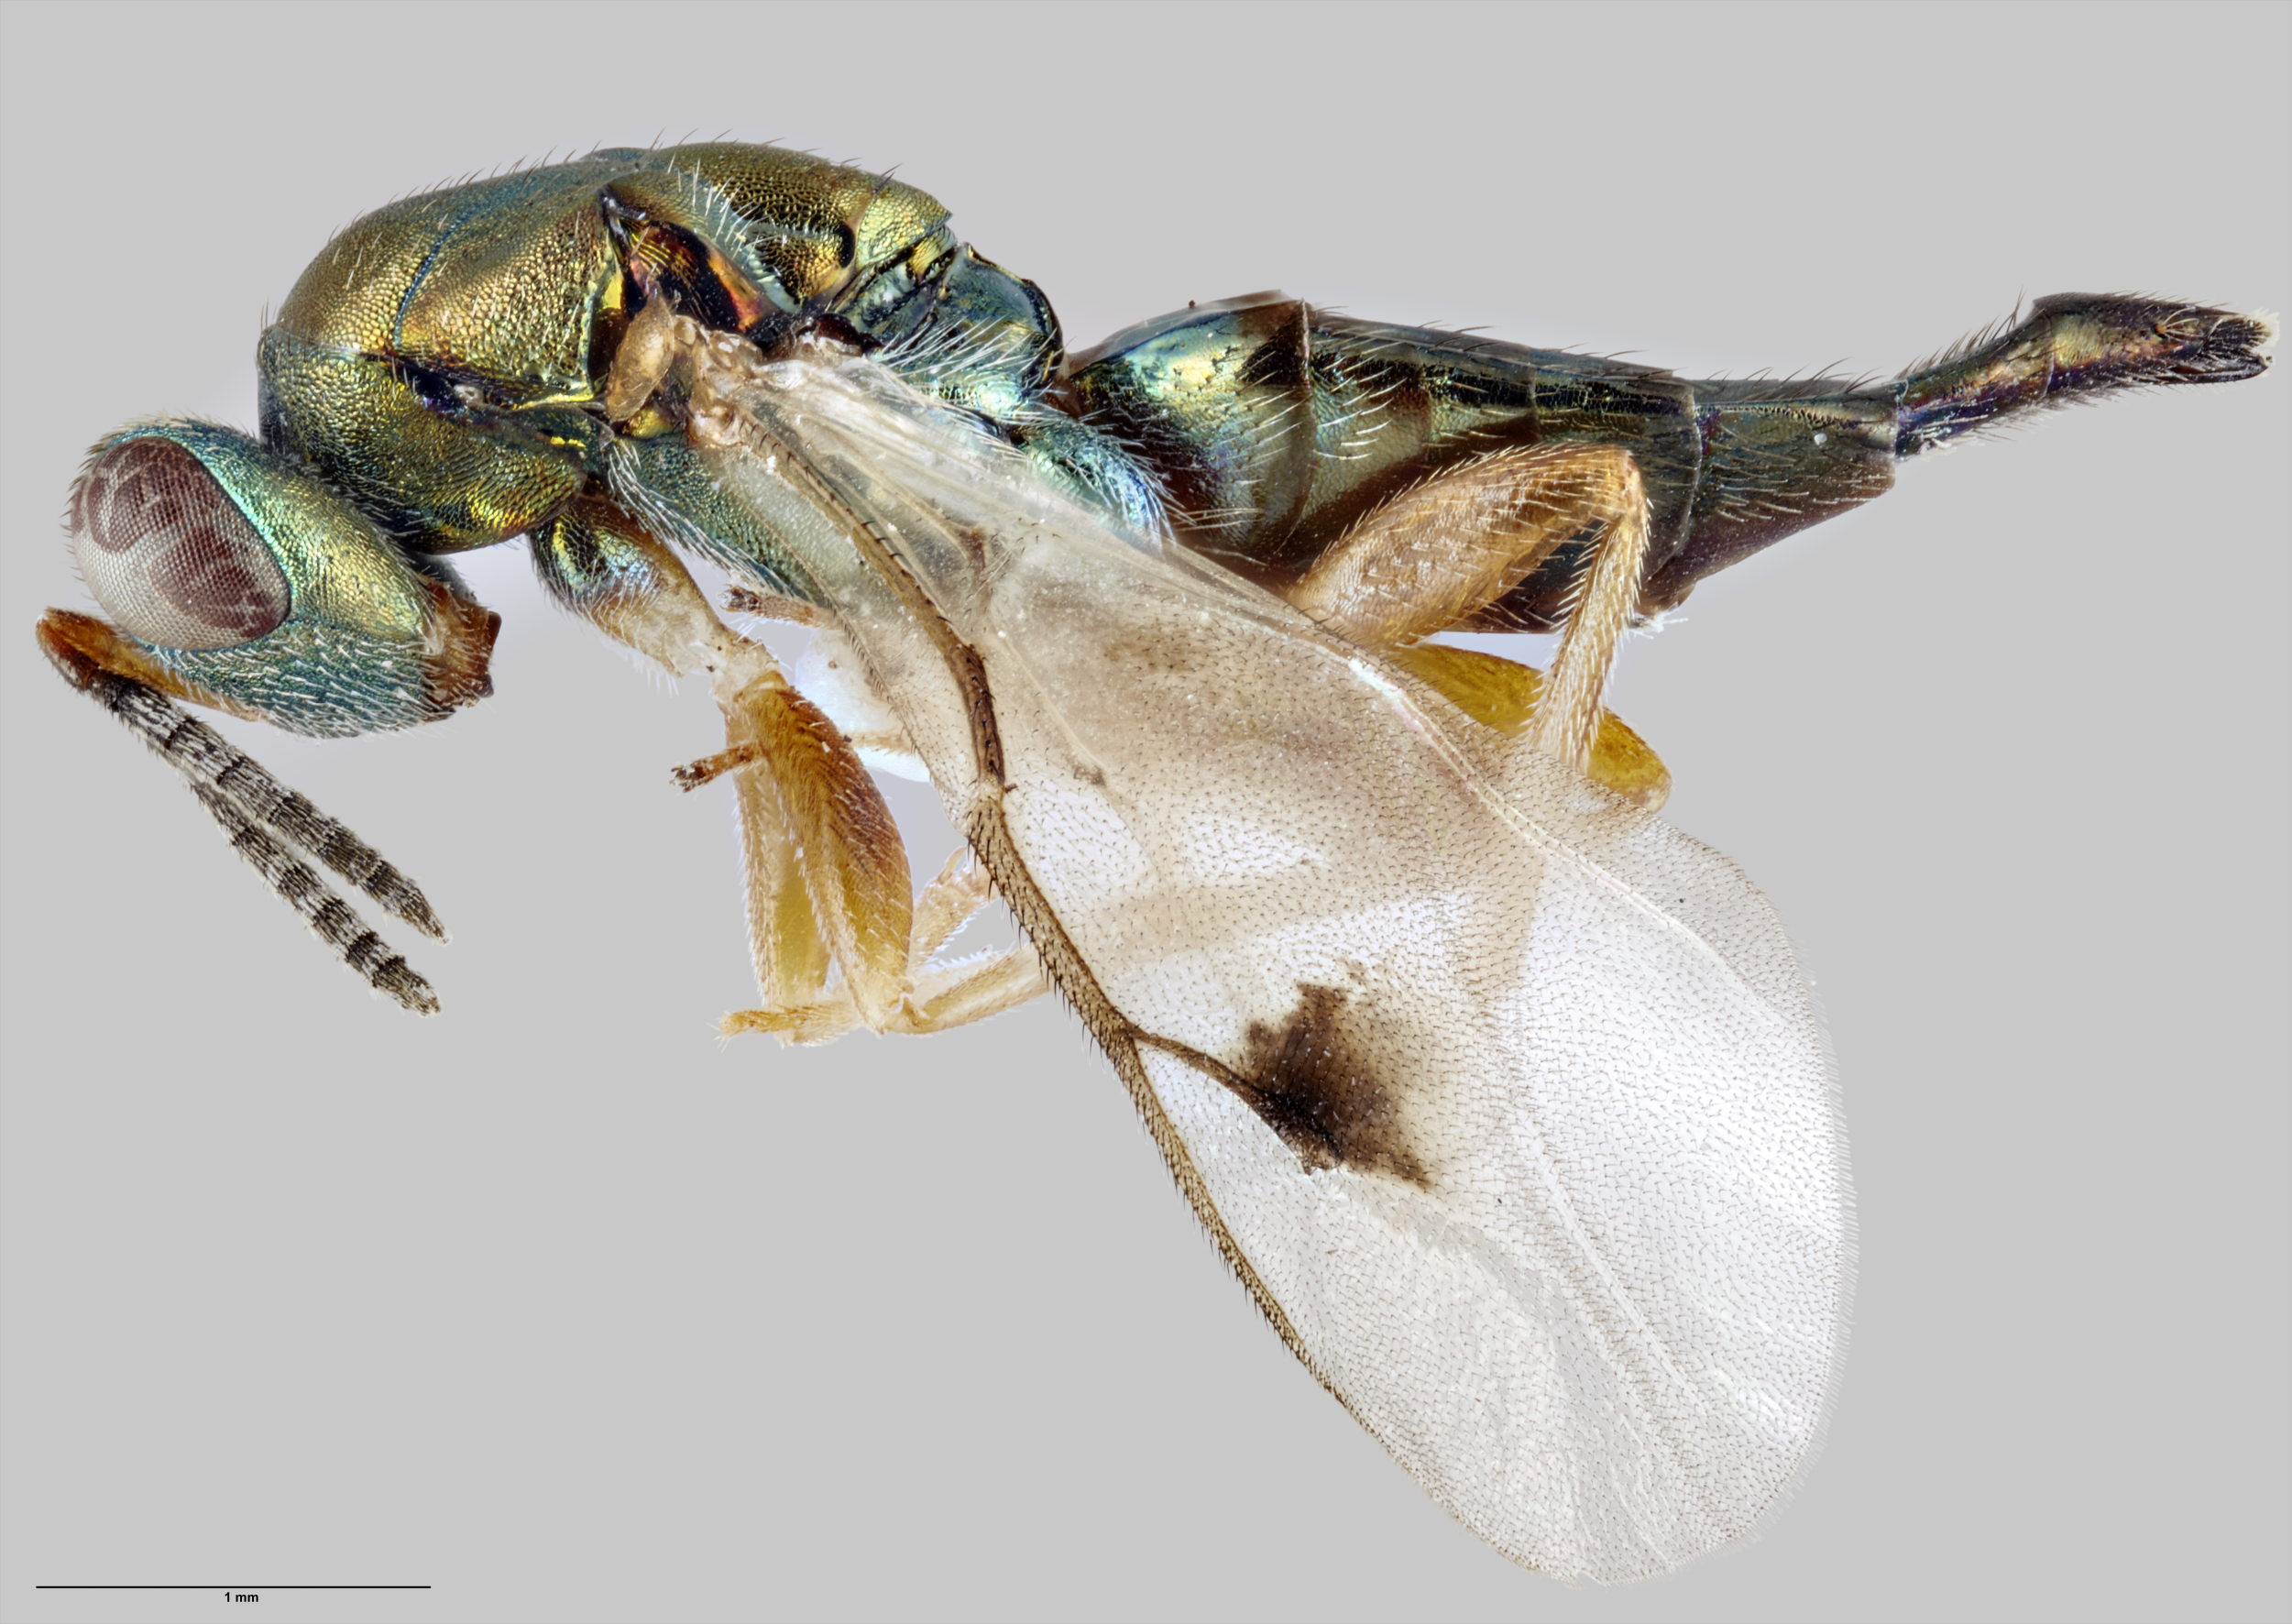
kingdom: Animalia
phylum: Arthropoda
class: Insecta
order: Hymenoptera
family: Pteromalidae
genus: Rhopalicus
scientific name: Rhopalicus tutela
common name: Wasp
